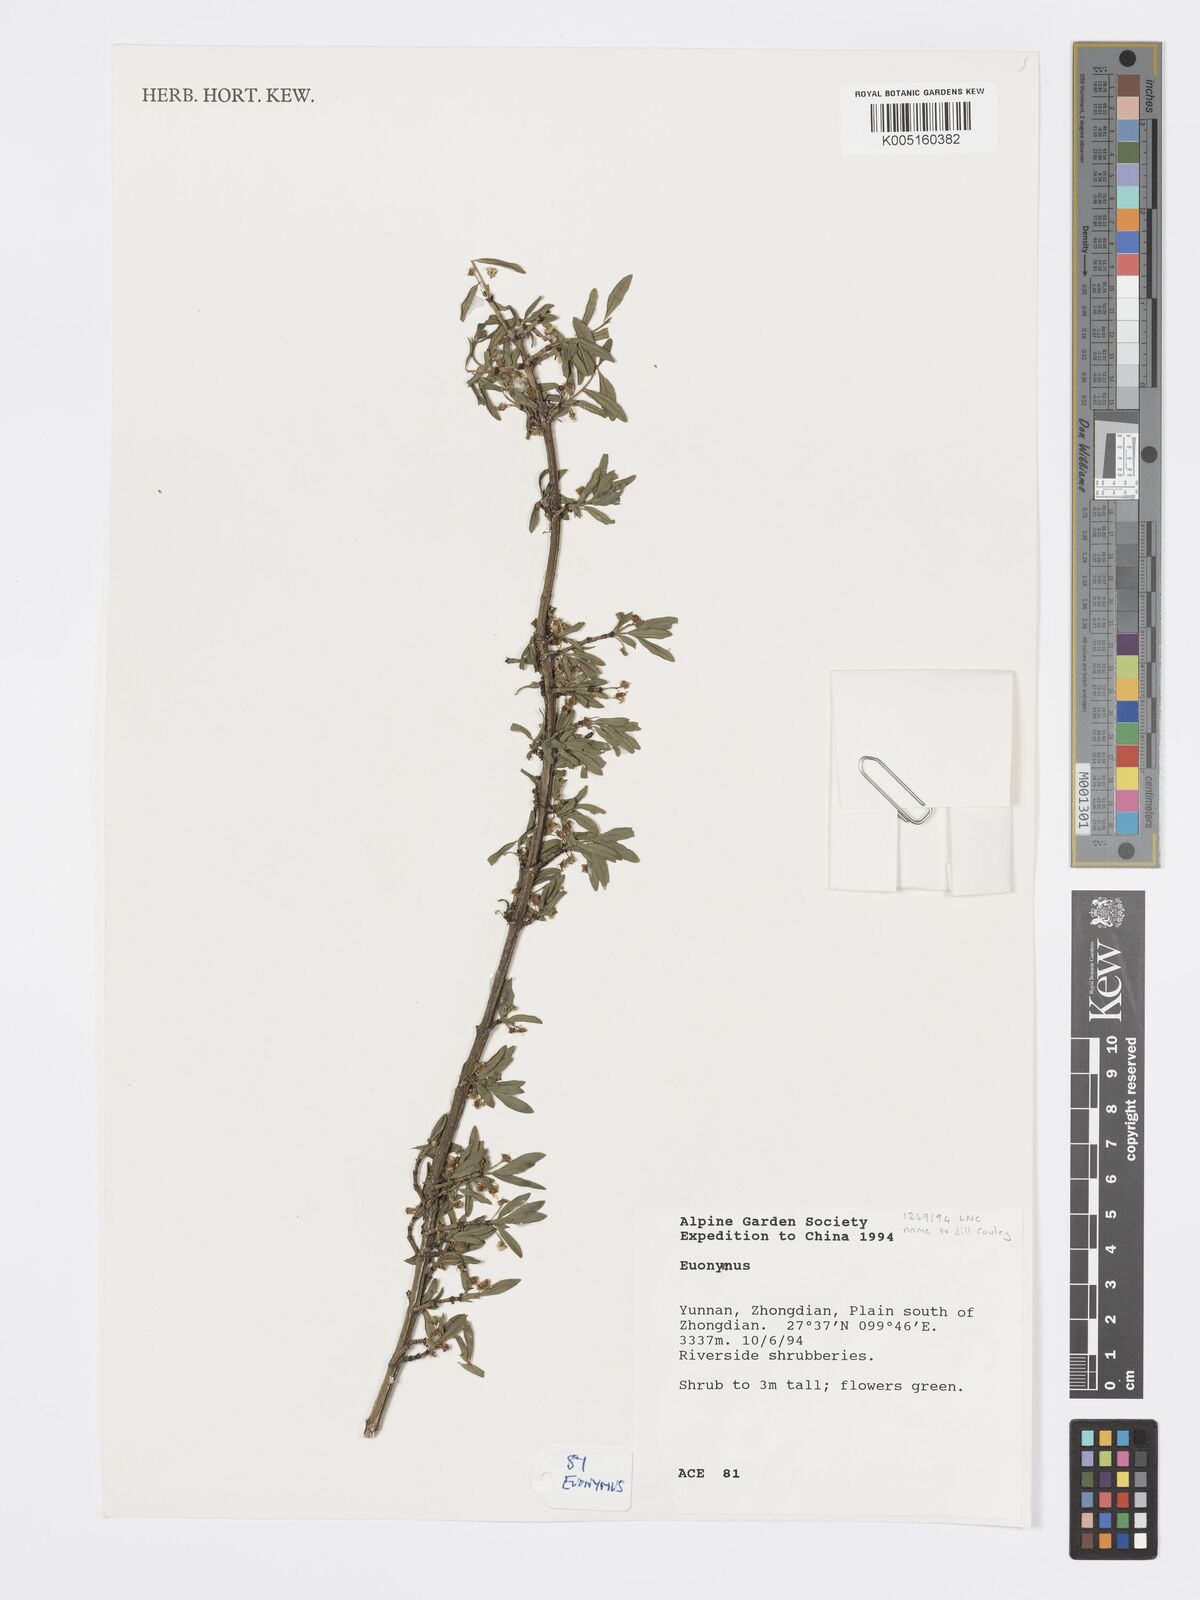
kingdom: Plantae
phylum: Tracheophyta
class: Magnoliopsida
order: Celastrales
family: Celastraceae
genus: Euonymus
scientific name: Euonymus
